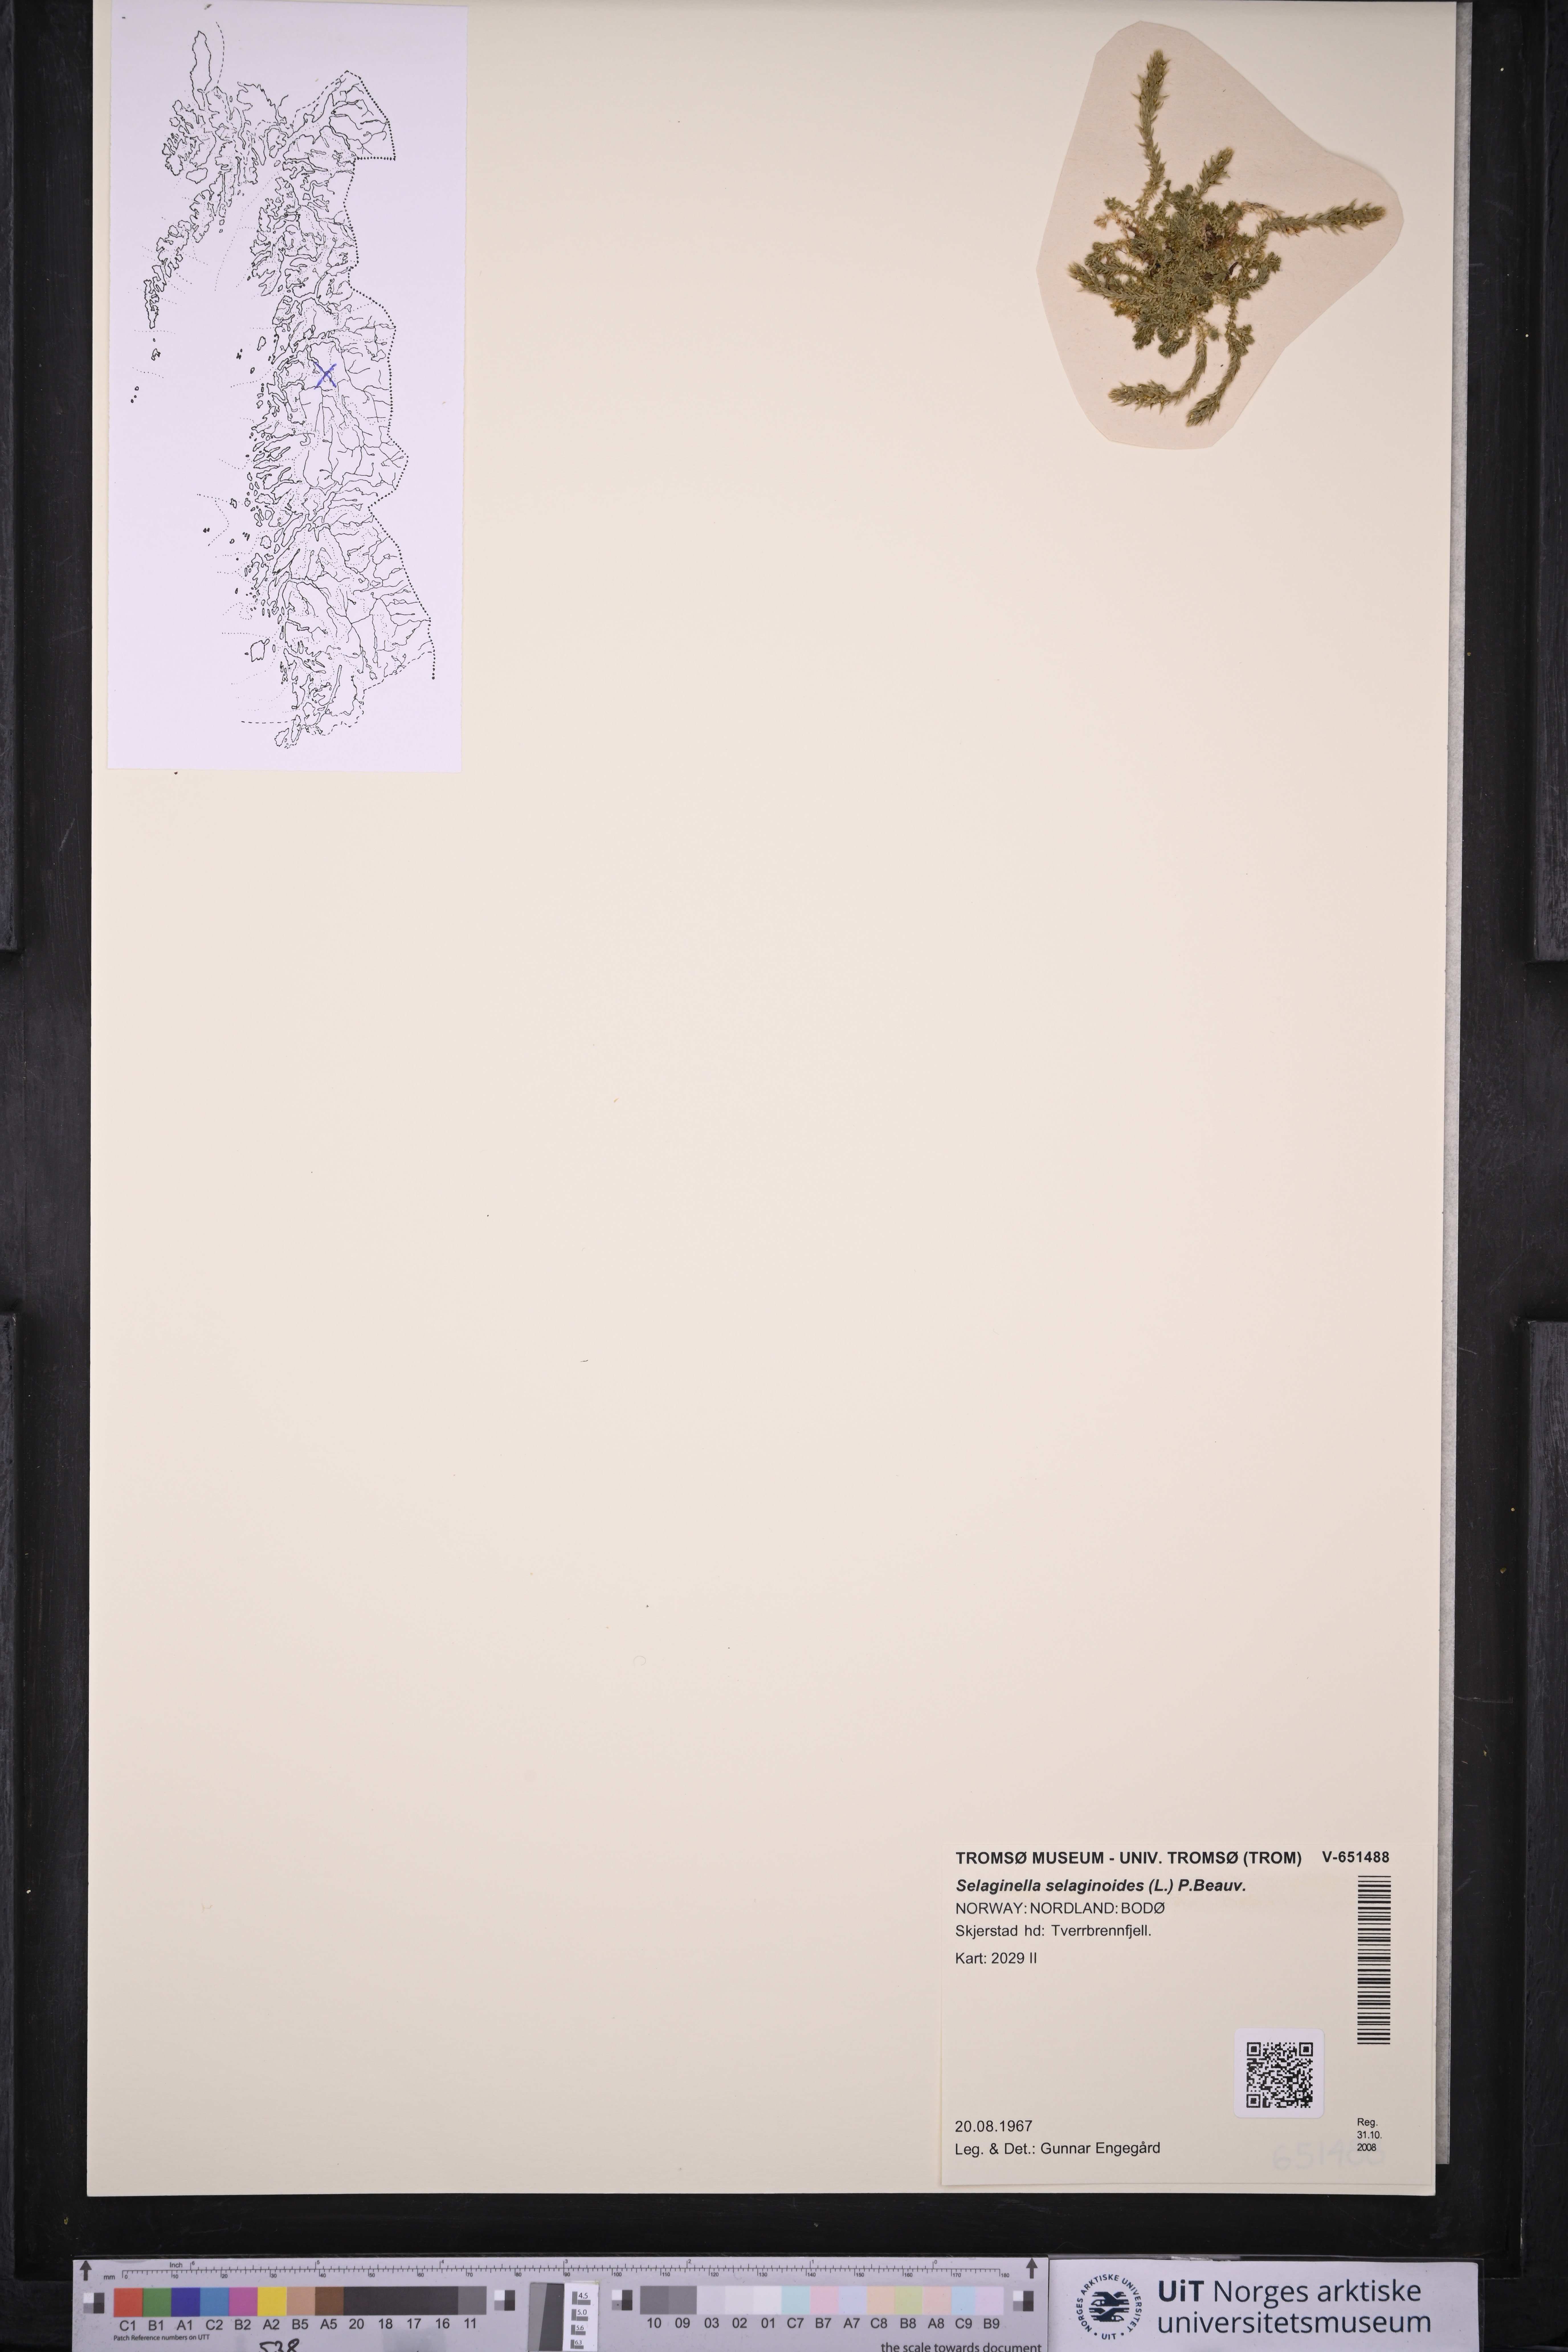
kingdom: Plantae
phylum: Tracheophyta
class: Lycopodiopsida
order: Selaginellales
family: Selaginellaceae
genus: Selaginella
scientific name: Selaginella selaginoides
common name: Prickly mountain-moss
